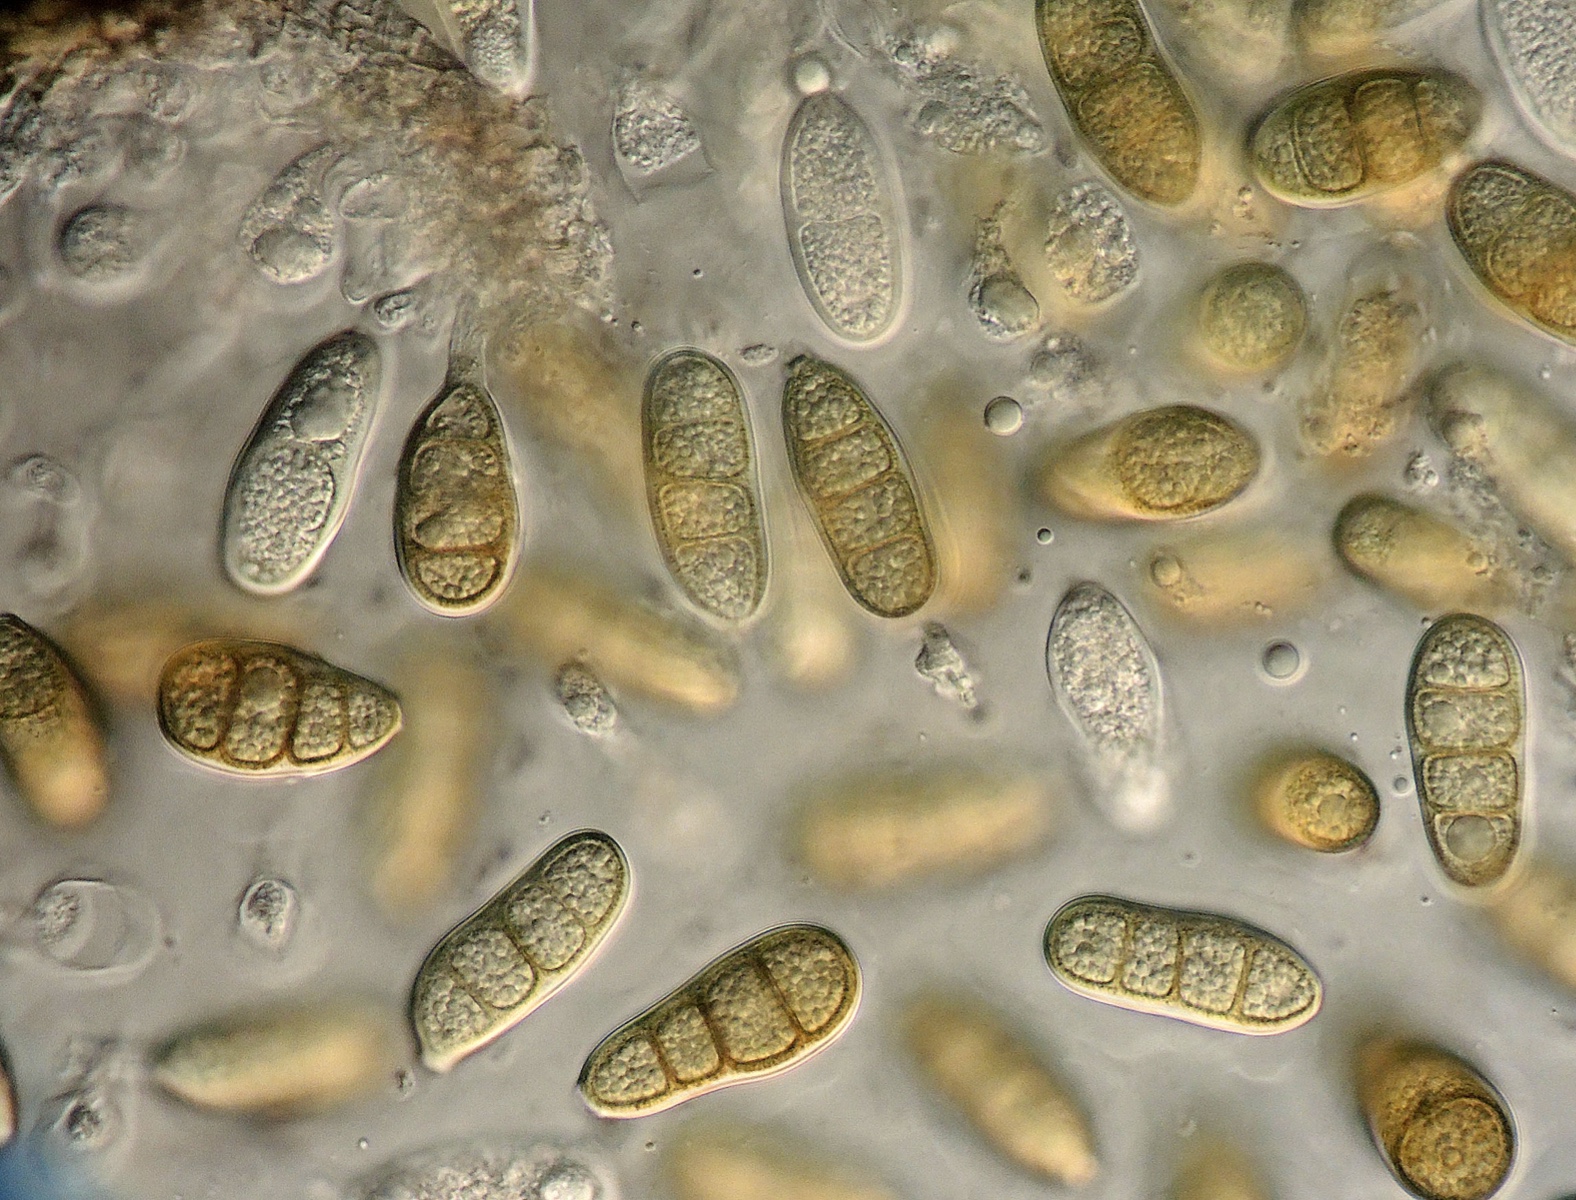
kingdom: Fungi
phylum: Ascomycota
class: Dothideomycetes
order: Pleosporales
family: Macrodiplodiopsidaceae
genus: Macrodiplodiopsis
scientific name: Macrodiplodiopsis desmazieri
